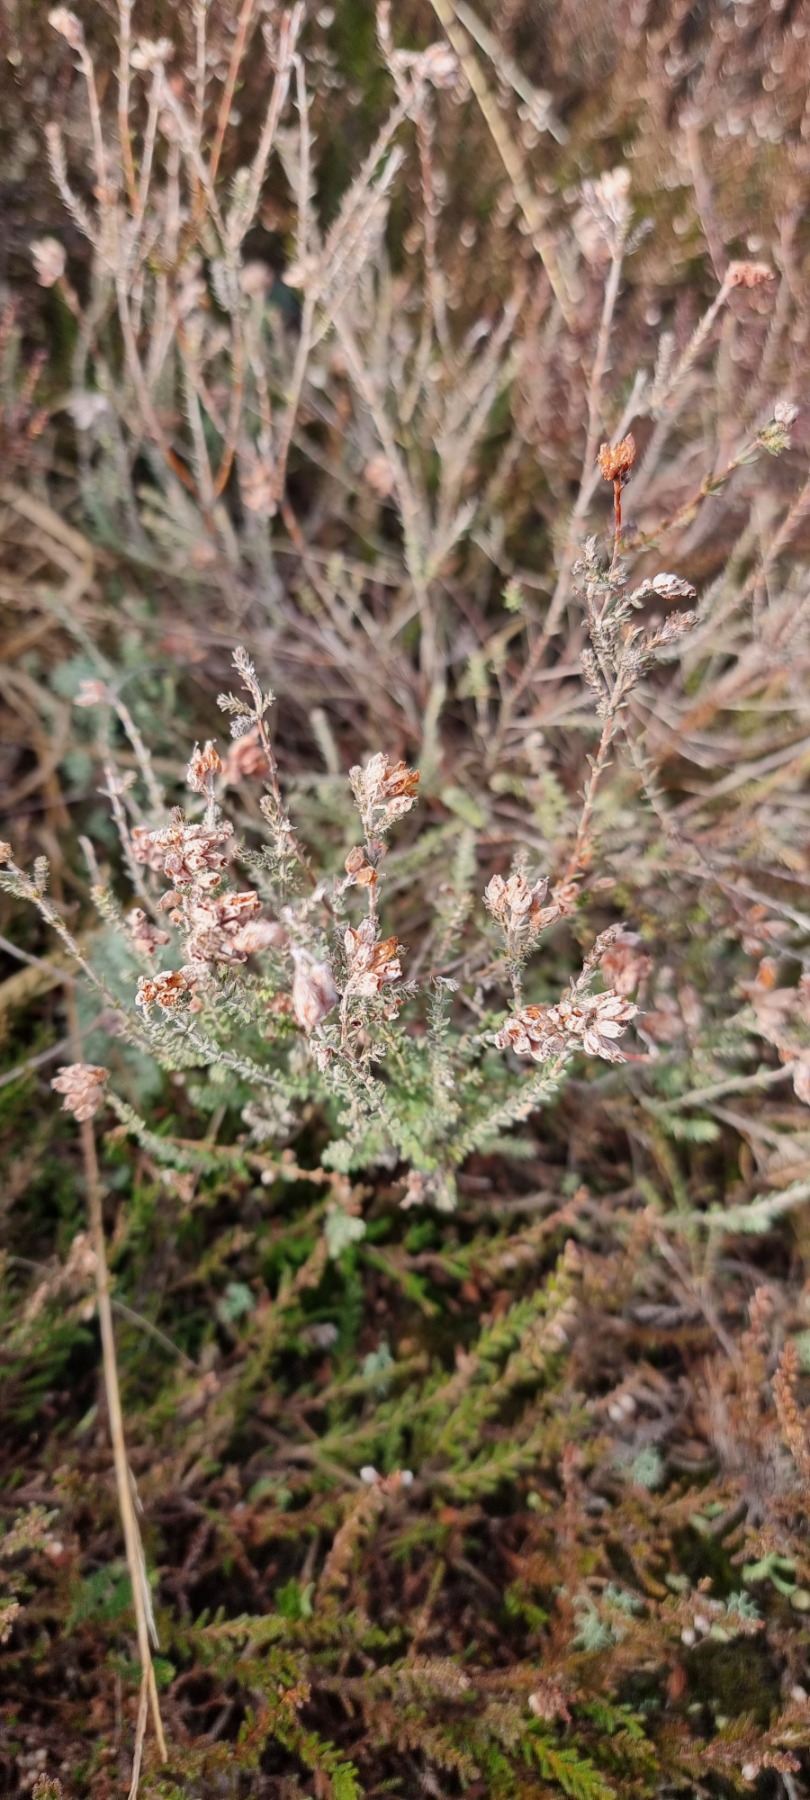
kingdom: Plantae
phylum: Tracheophyta
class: Magnoliopsida
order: Ericales
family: Ericaceae
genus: Erica
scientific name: Erica tetralix
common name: Klokkelyng
